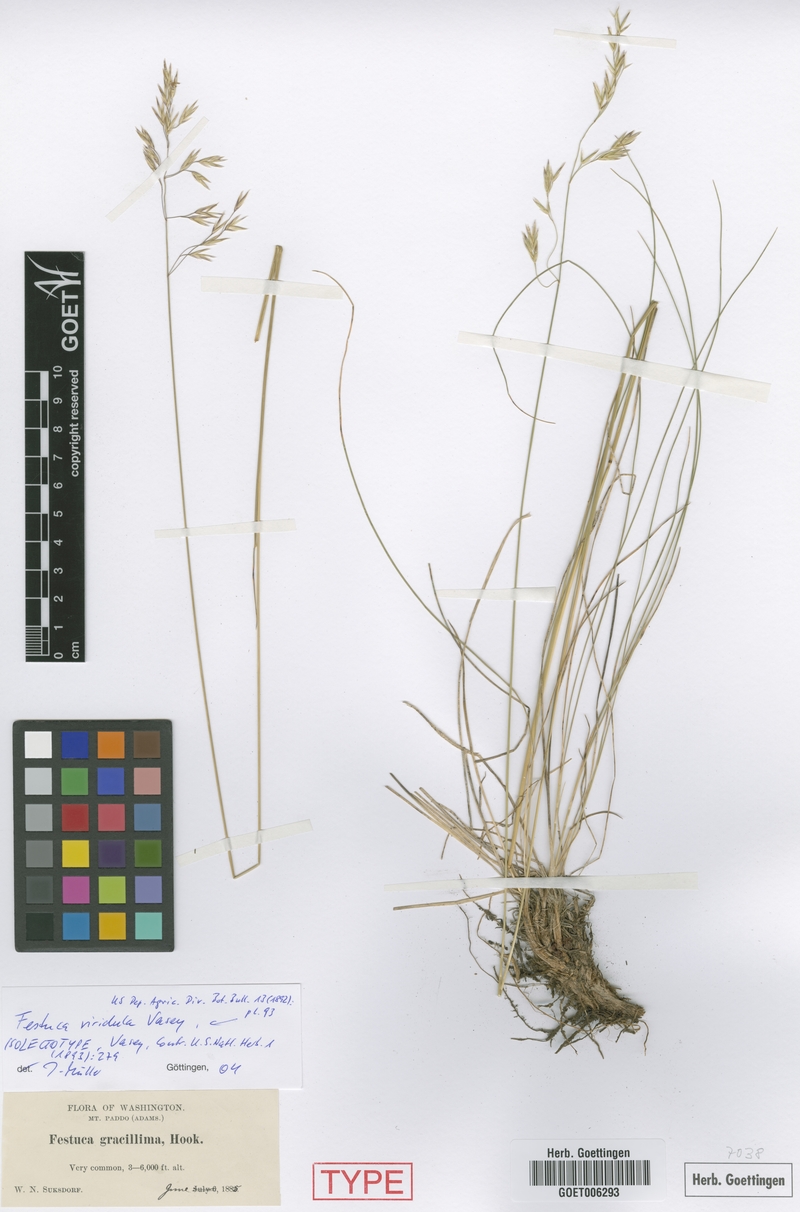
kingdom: Plantae
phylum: Tracheophyta
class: Liliopsida
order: Poales
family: Poaceae
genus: Festuca
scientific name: Festuca viridula
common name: Mountain bunchgrass
